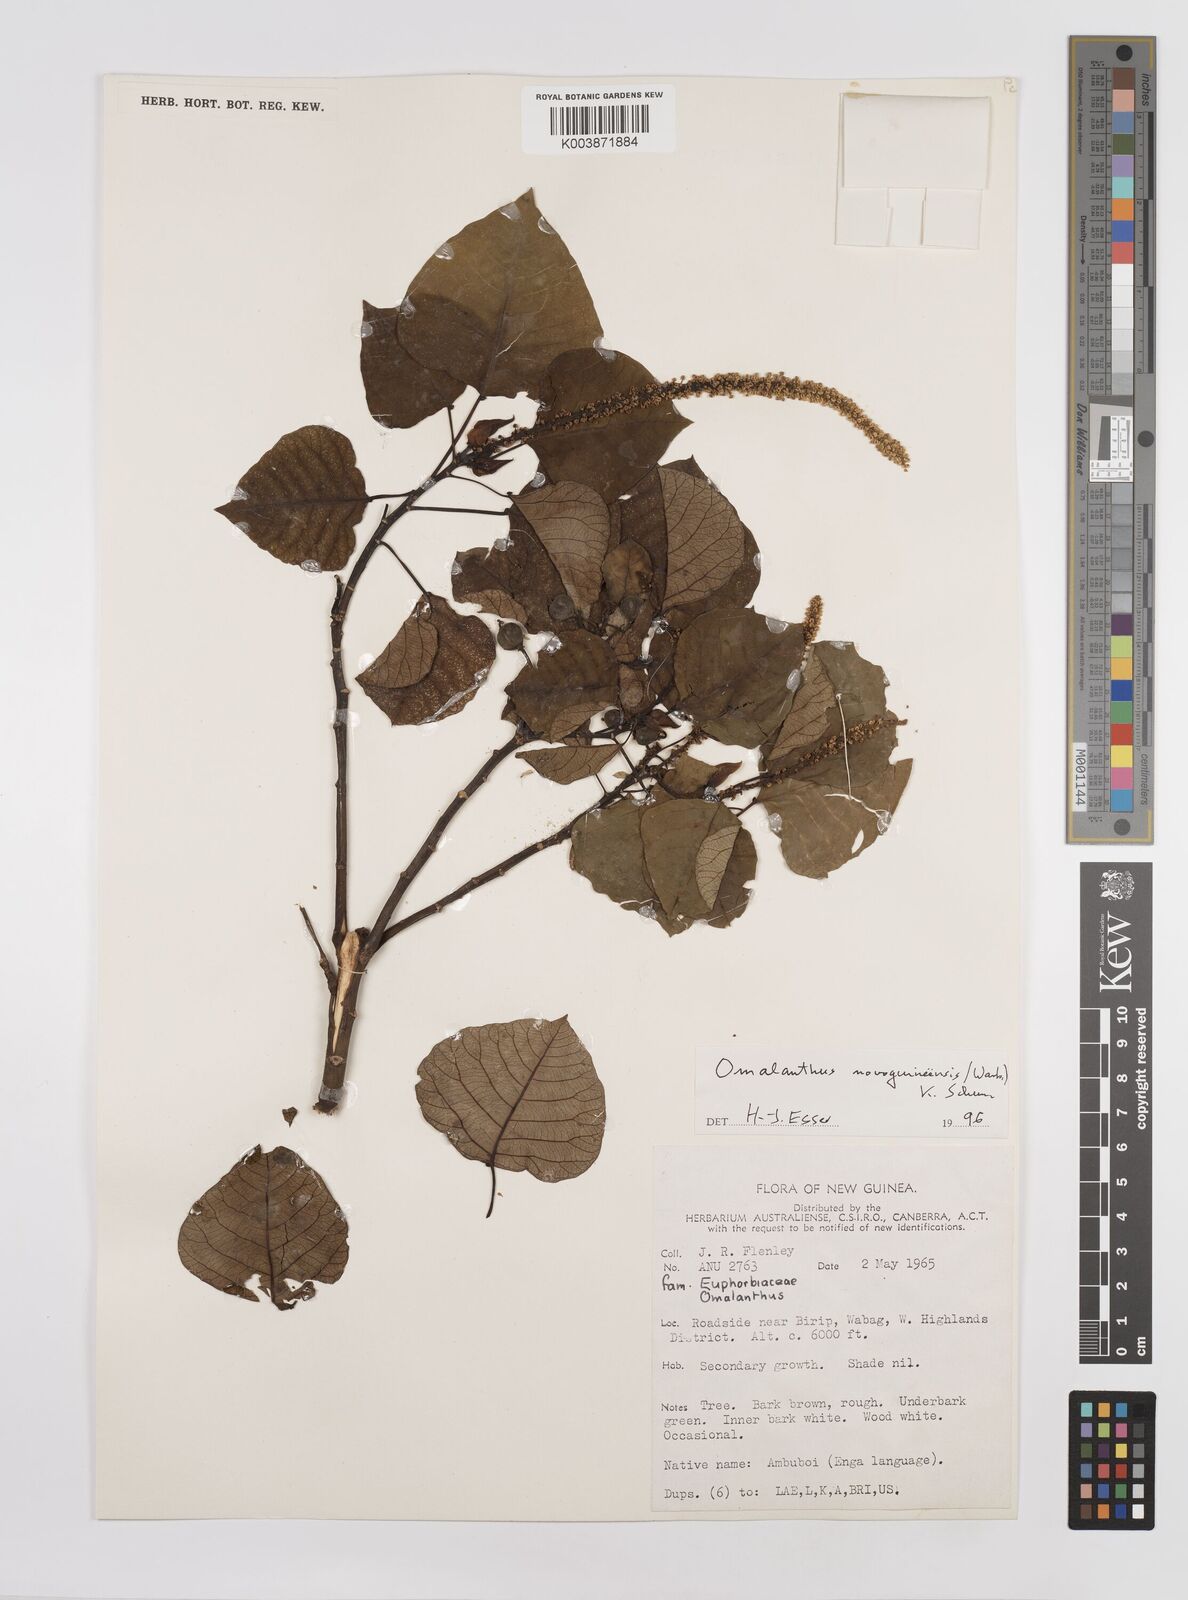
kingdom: Plantae
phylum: Tracheophyta
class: Magnoliopsida
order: Malpighiales
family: Euphorbiaceae
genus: Homalanthus
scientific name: Homalanthus novoguineensis
